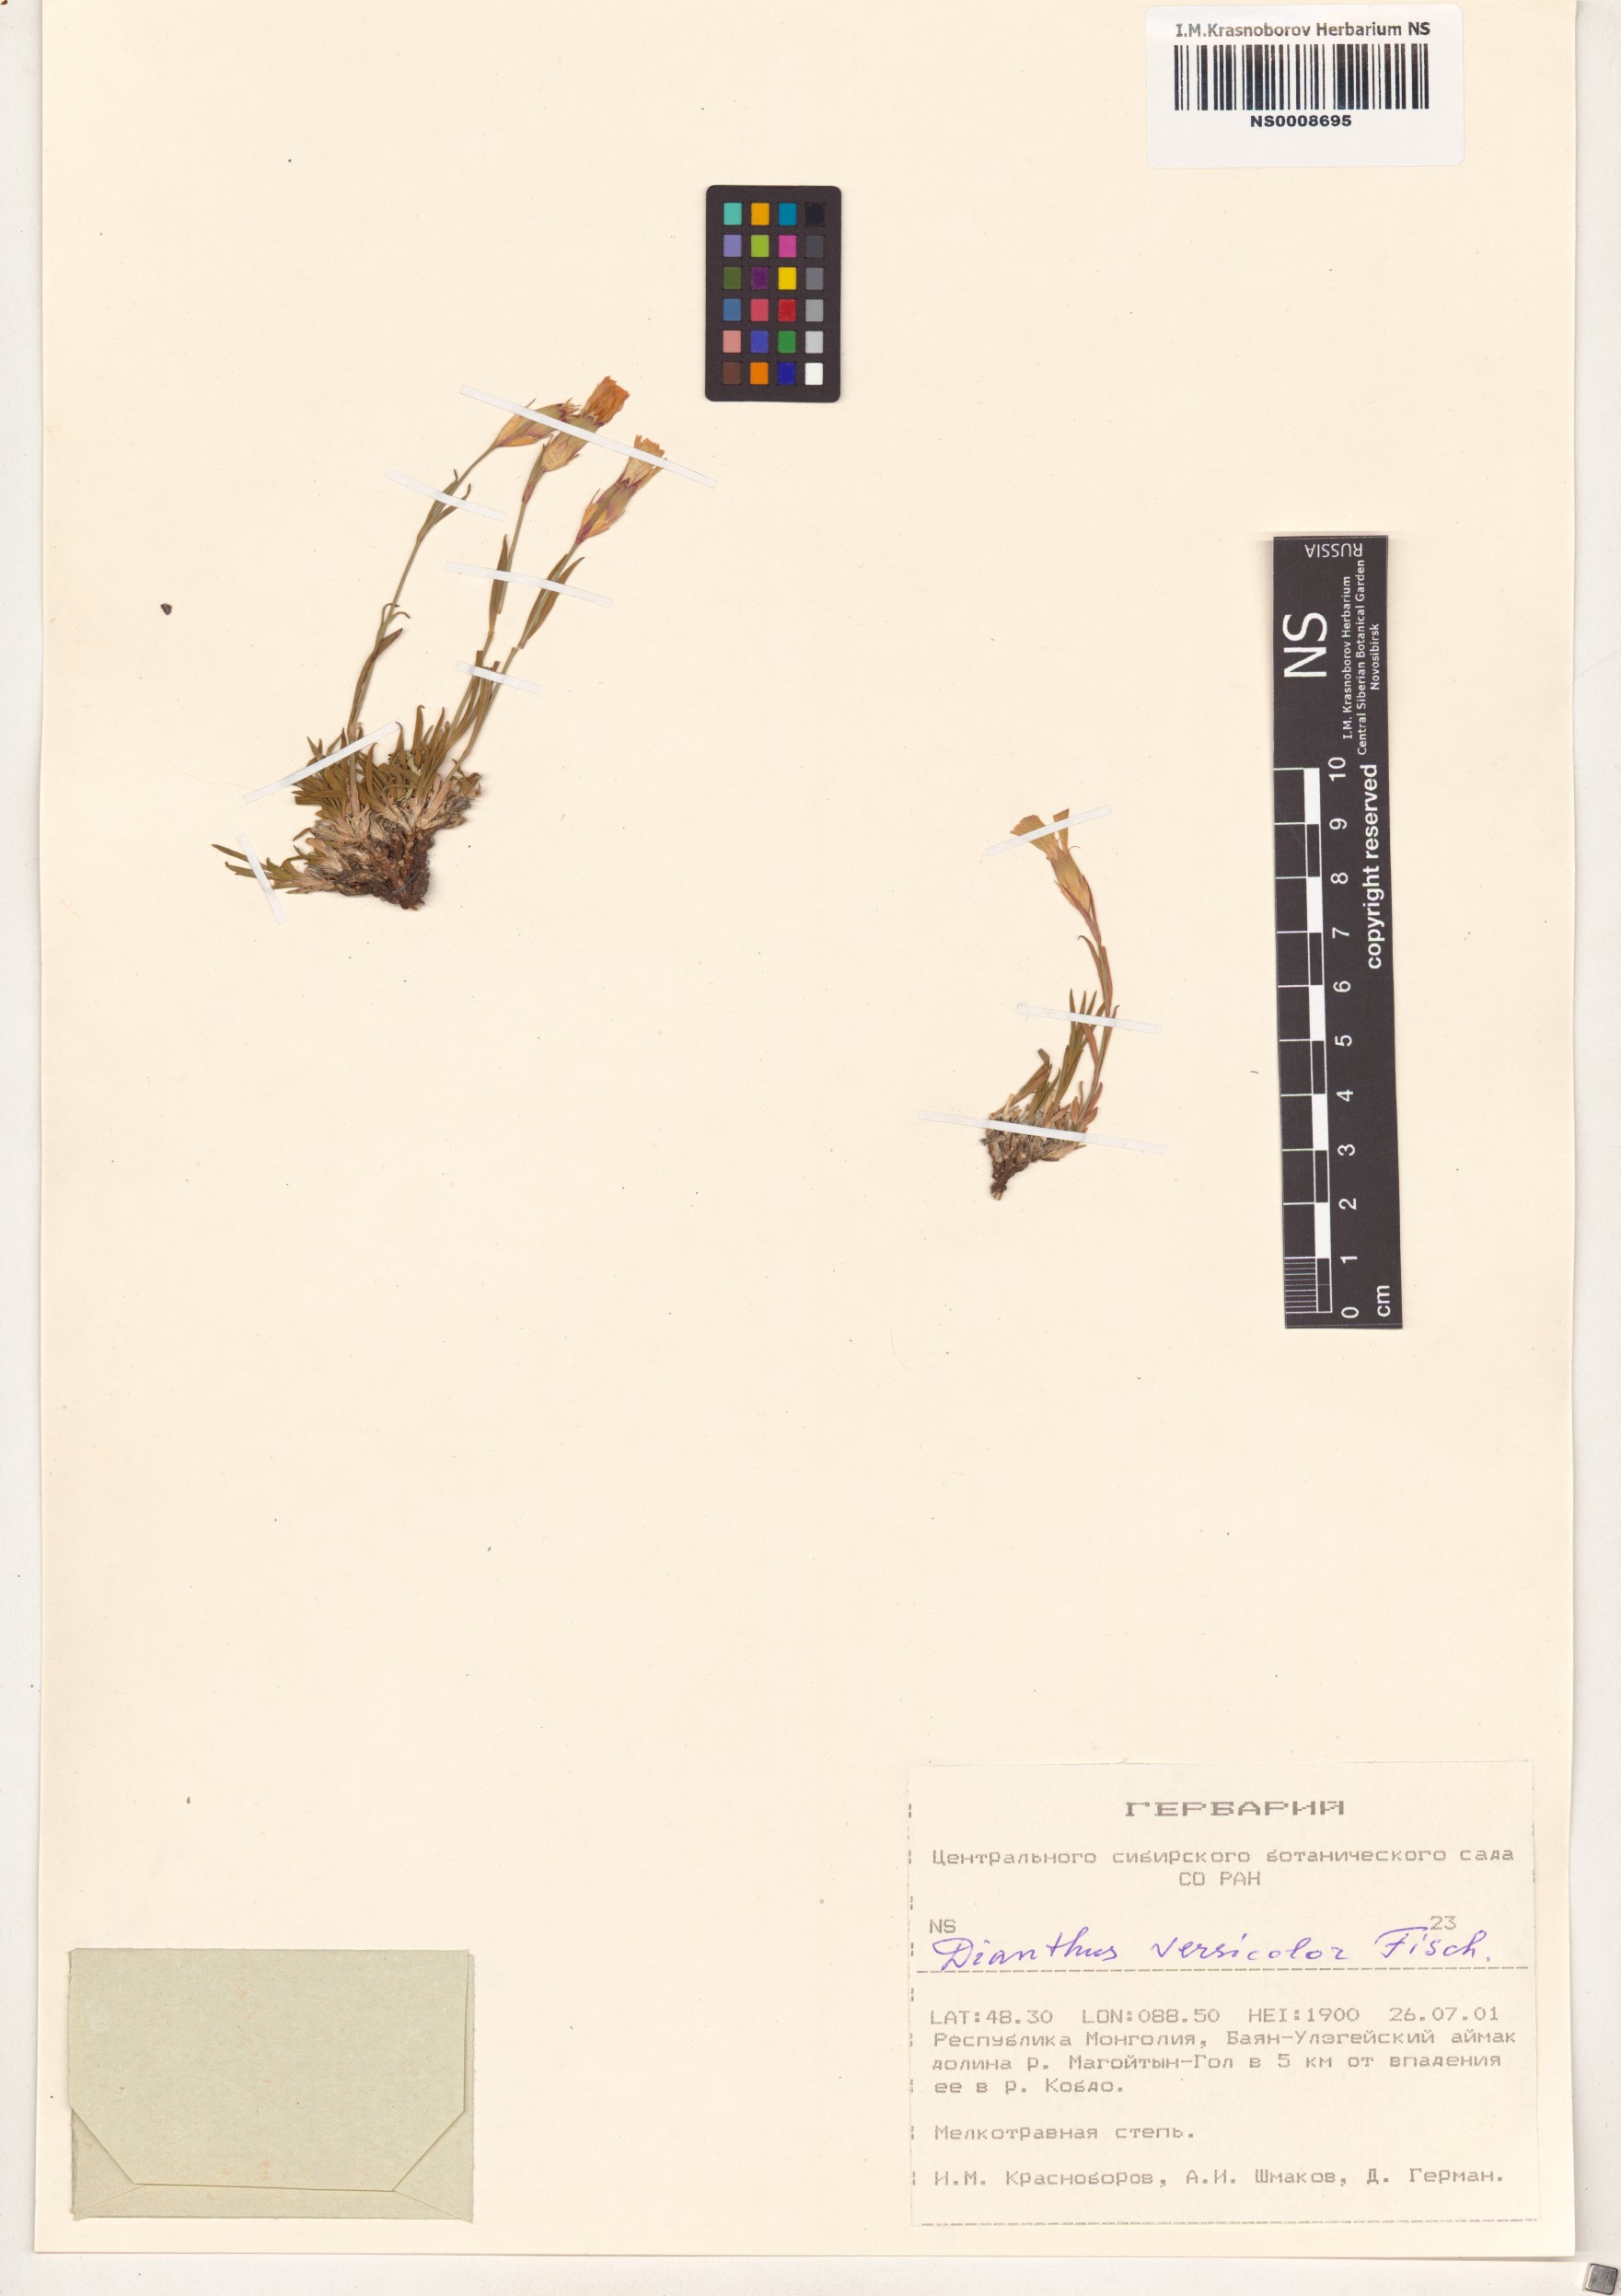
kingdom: Plantae
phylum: Tracheophyta
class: Magnoliopsida
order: Caryophyllales
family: Caryophyllaceae
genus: Dianthus
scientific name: Dianthus chinensis
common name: Rainbow pink
